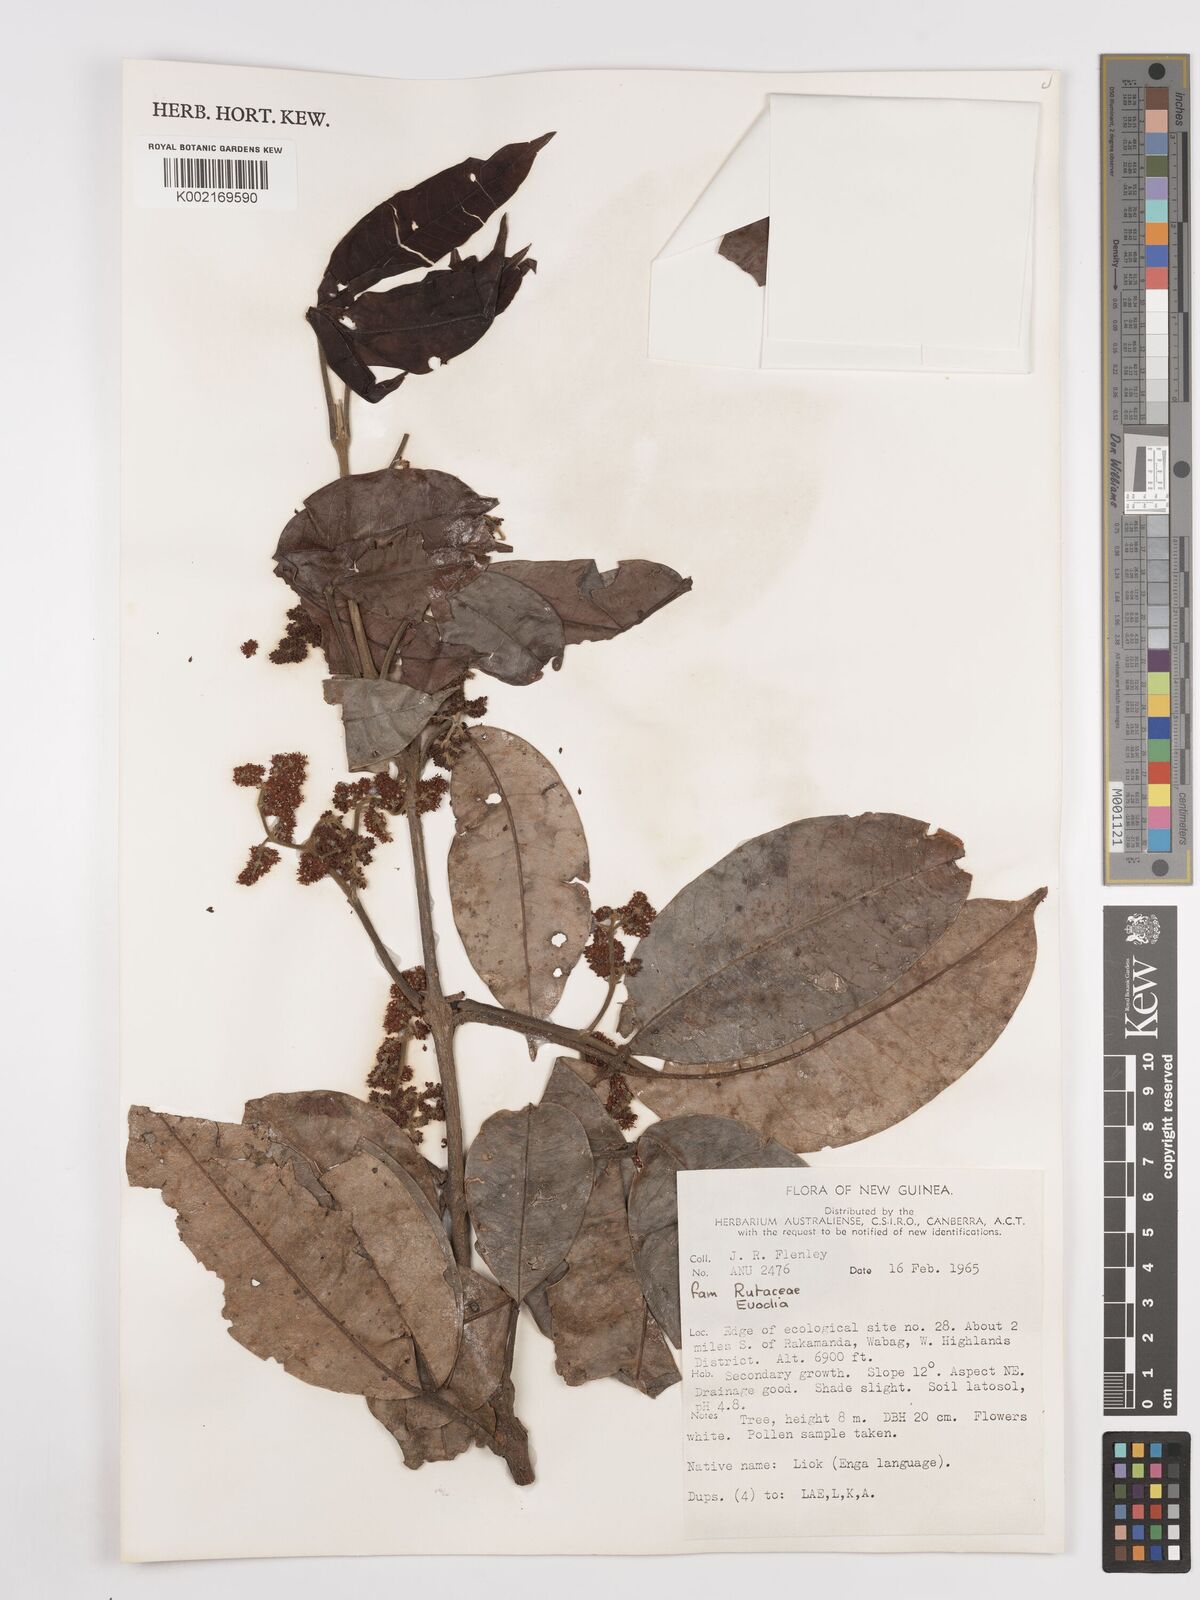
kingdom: Plantae
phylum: Tracheophyta
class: Magnoliopsida
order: Sapindales
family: Rutaceae
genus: Euodia
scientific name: Euodia
